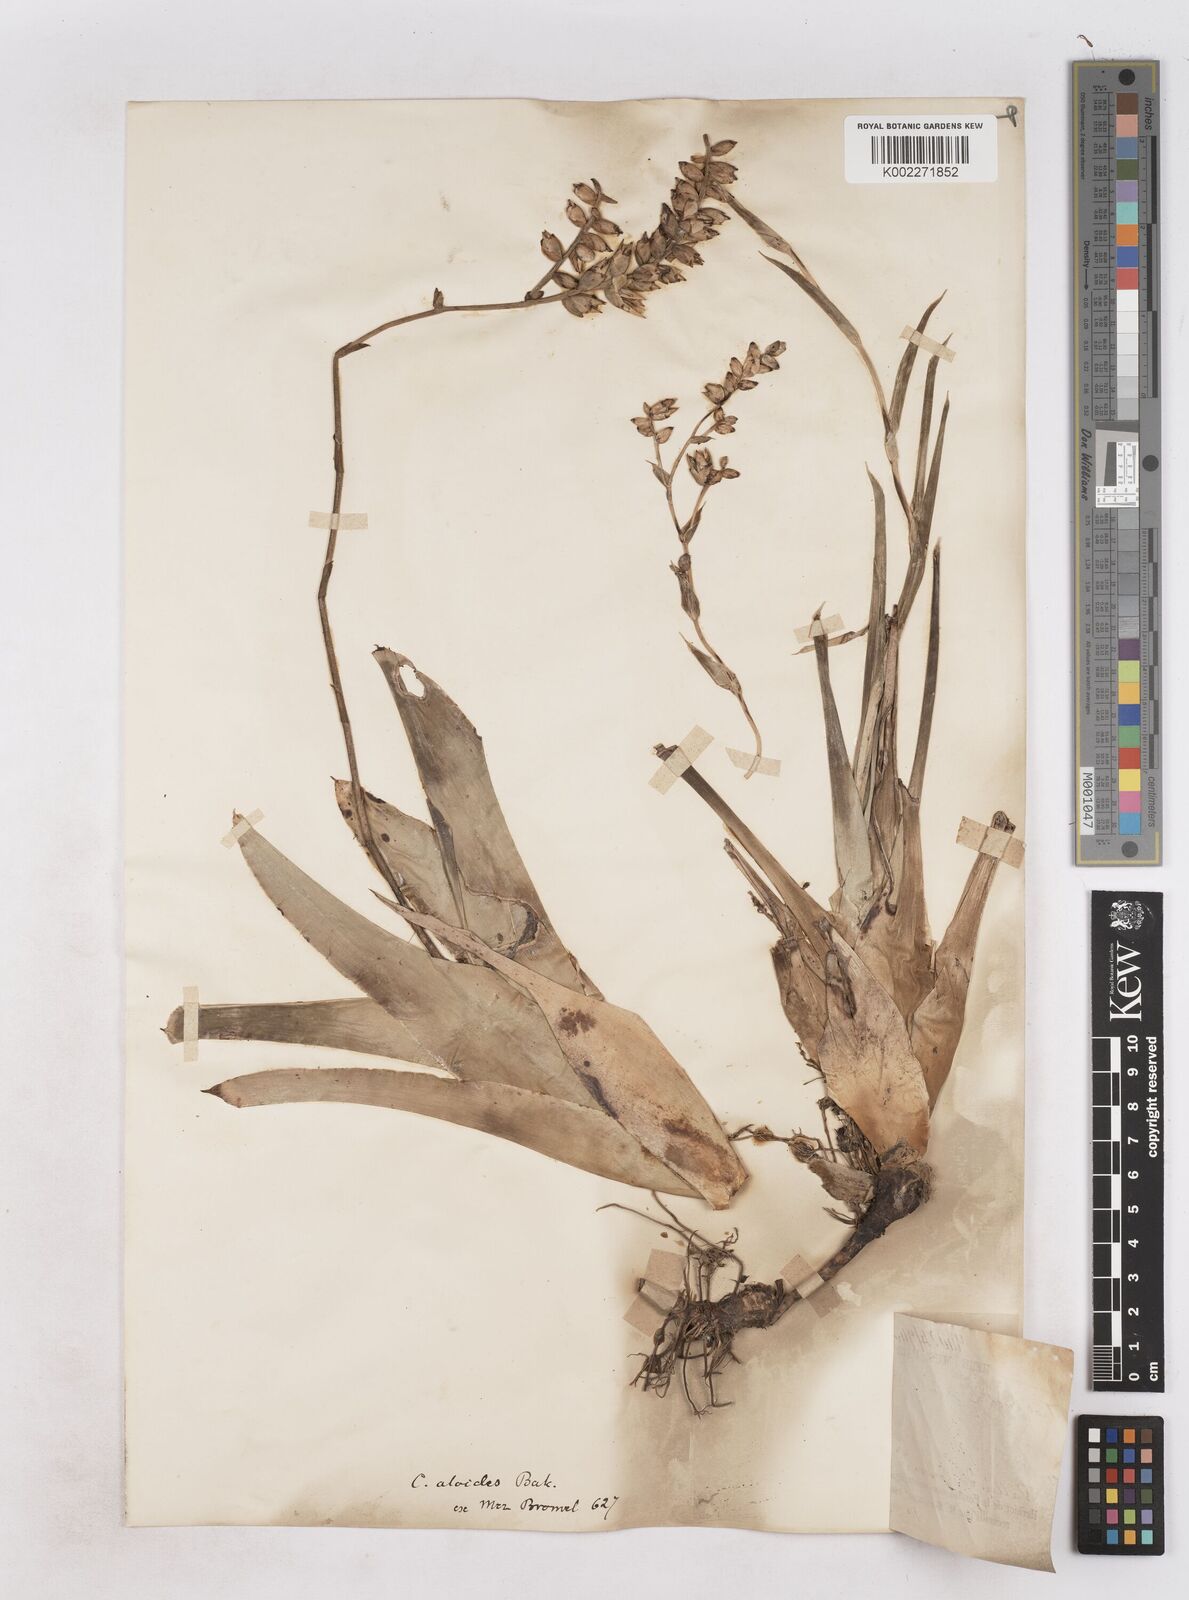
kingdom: Plantae
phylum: Tracheophyta
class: Liliopsida
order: Poales
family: Bromeliaceae
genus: Catopsis
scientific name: Catopsis sessiliflora
